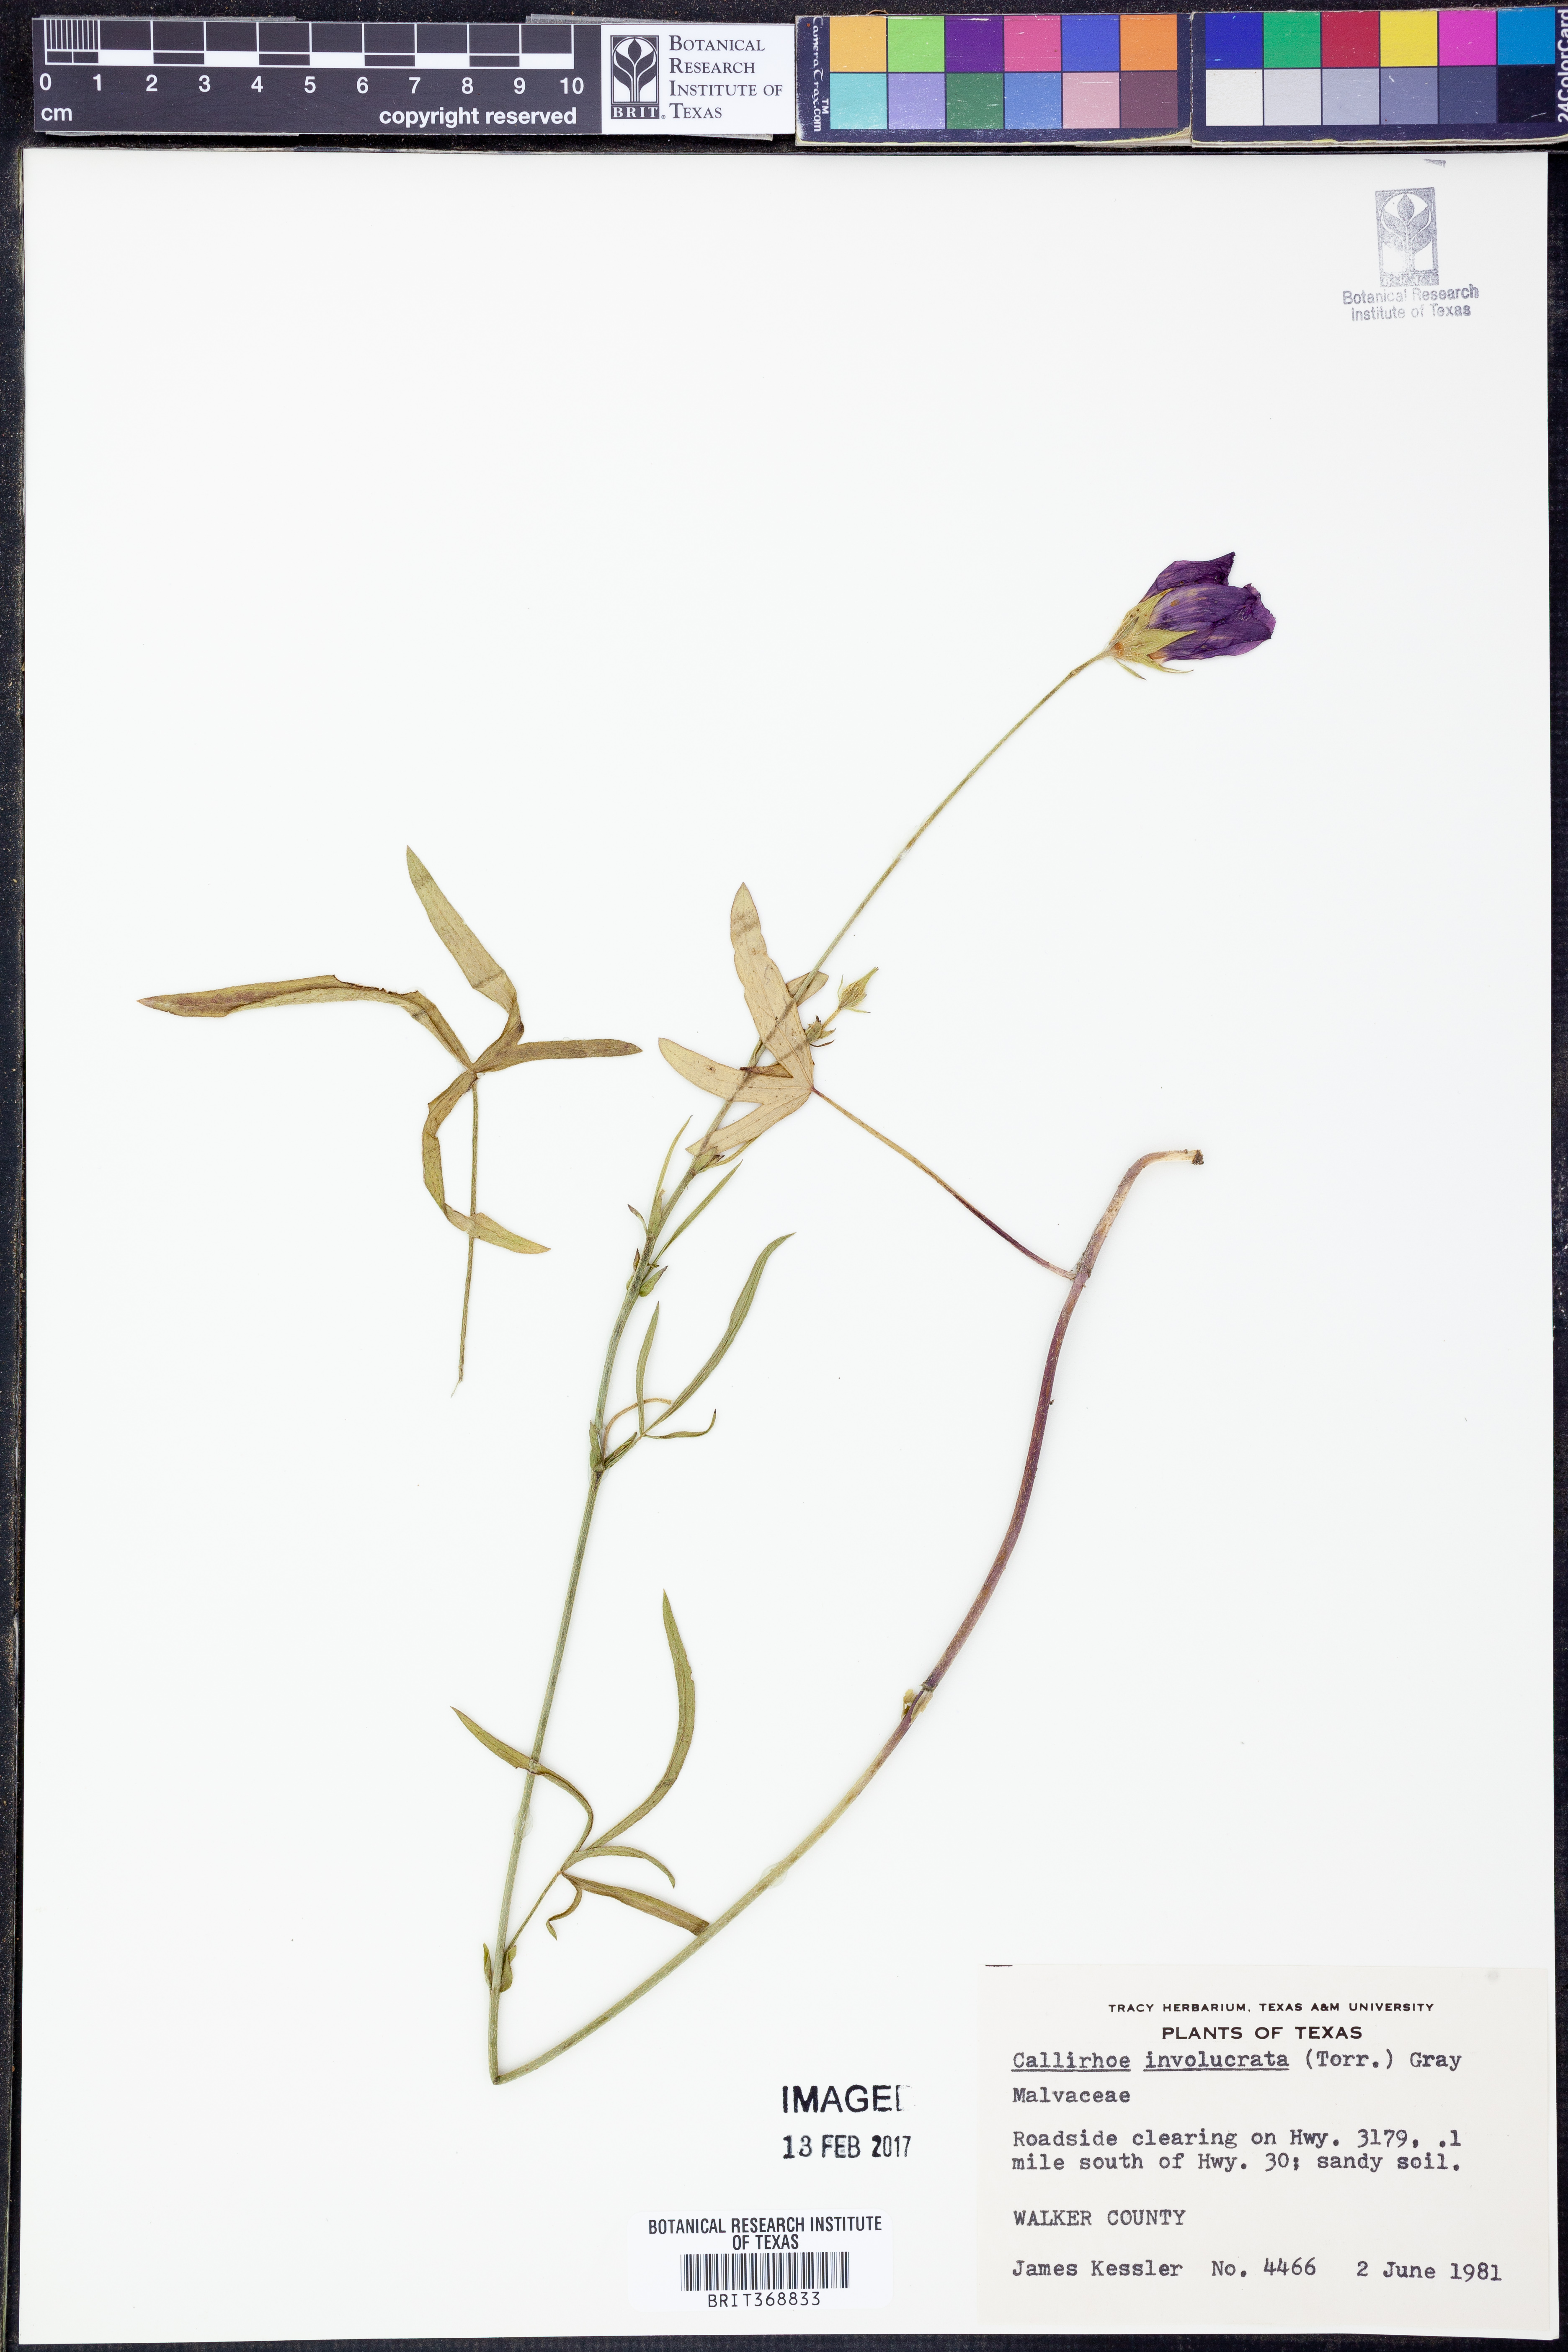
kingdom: Plantae
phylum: Tracheophyta
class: Magnoliopsida
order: Malvales
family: Malvaceae
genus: Callirhoe
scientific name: Callirhoe involucrata
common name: Purple poppy-mallow
